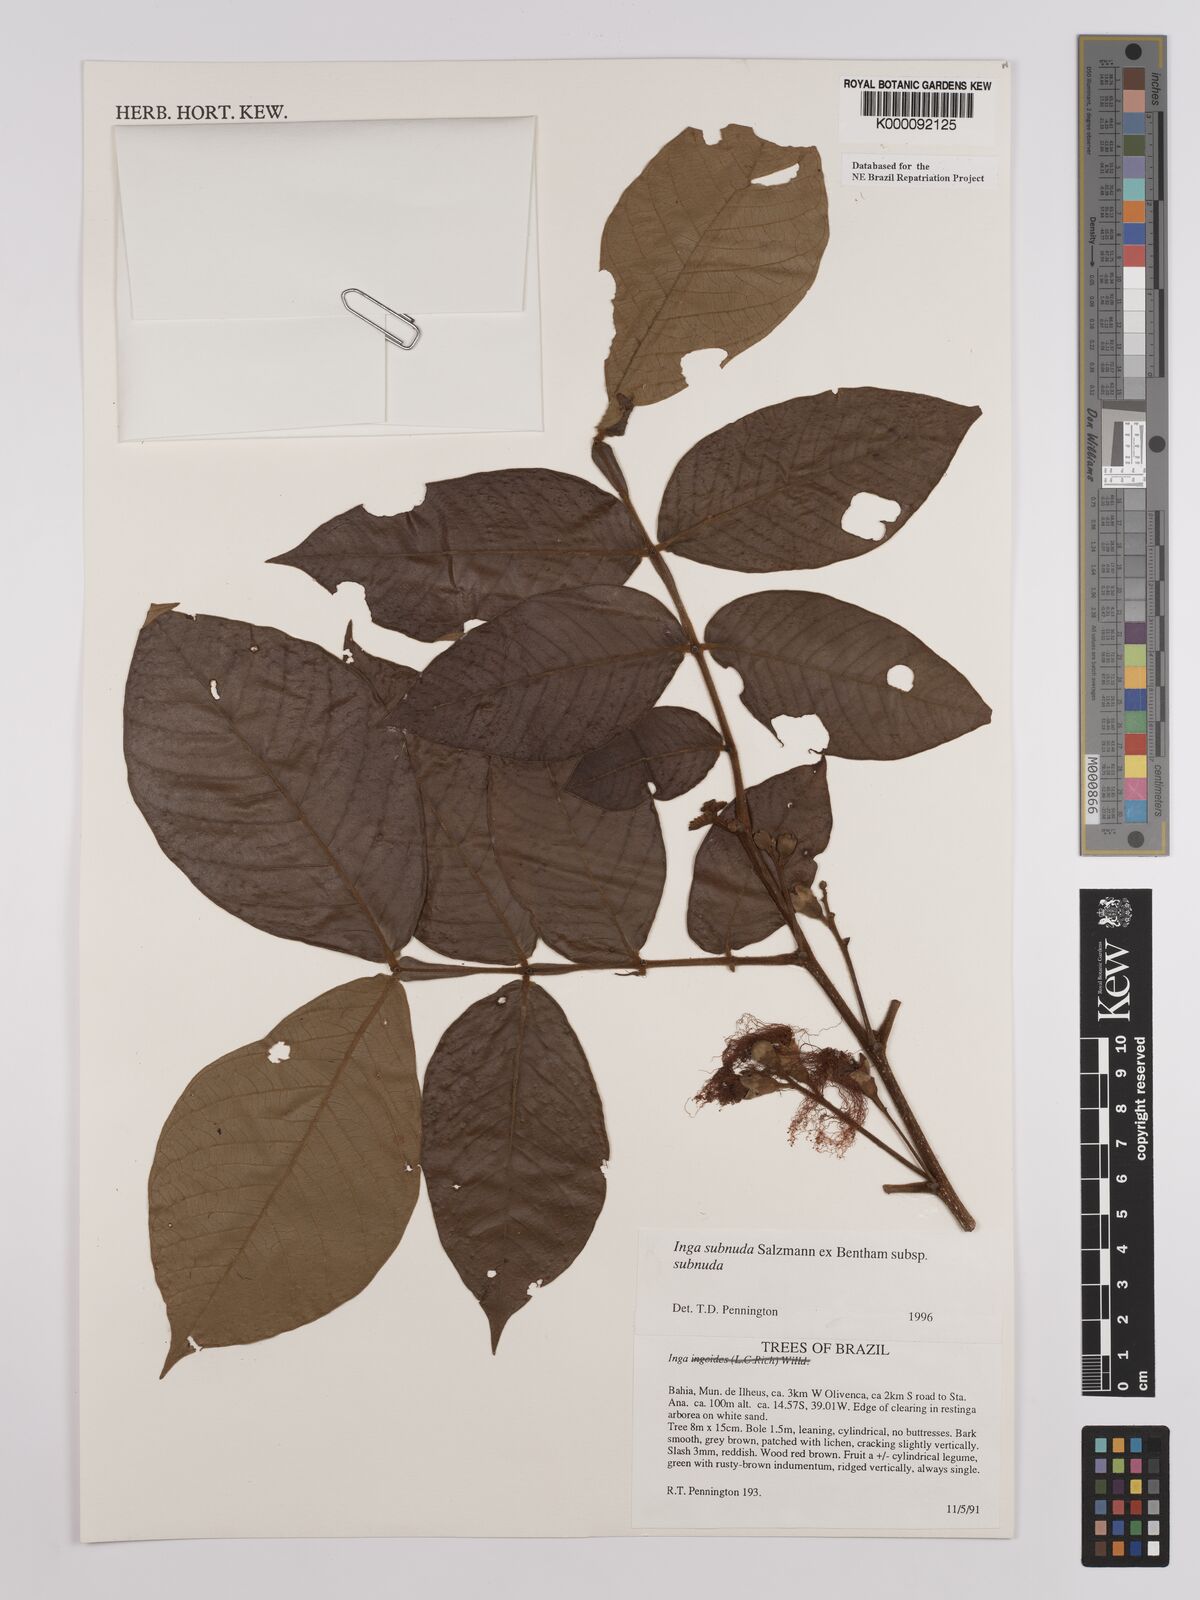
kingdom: Plantae
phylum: Tracheophyta
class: Magnoliopsida
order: Fabales
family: Fabaceae
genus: Inga
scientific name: Inga subnuda
